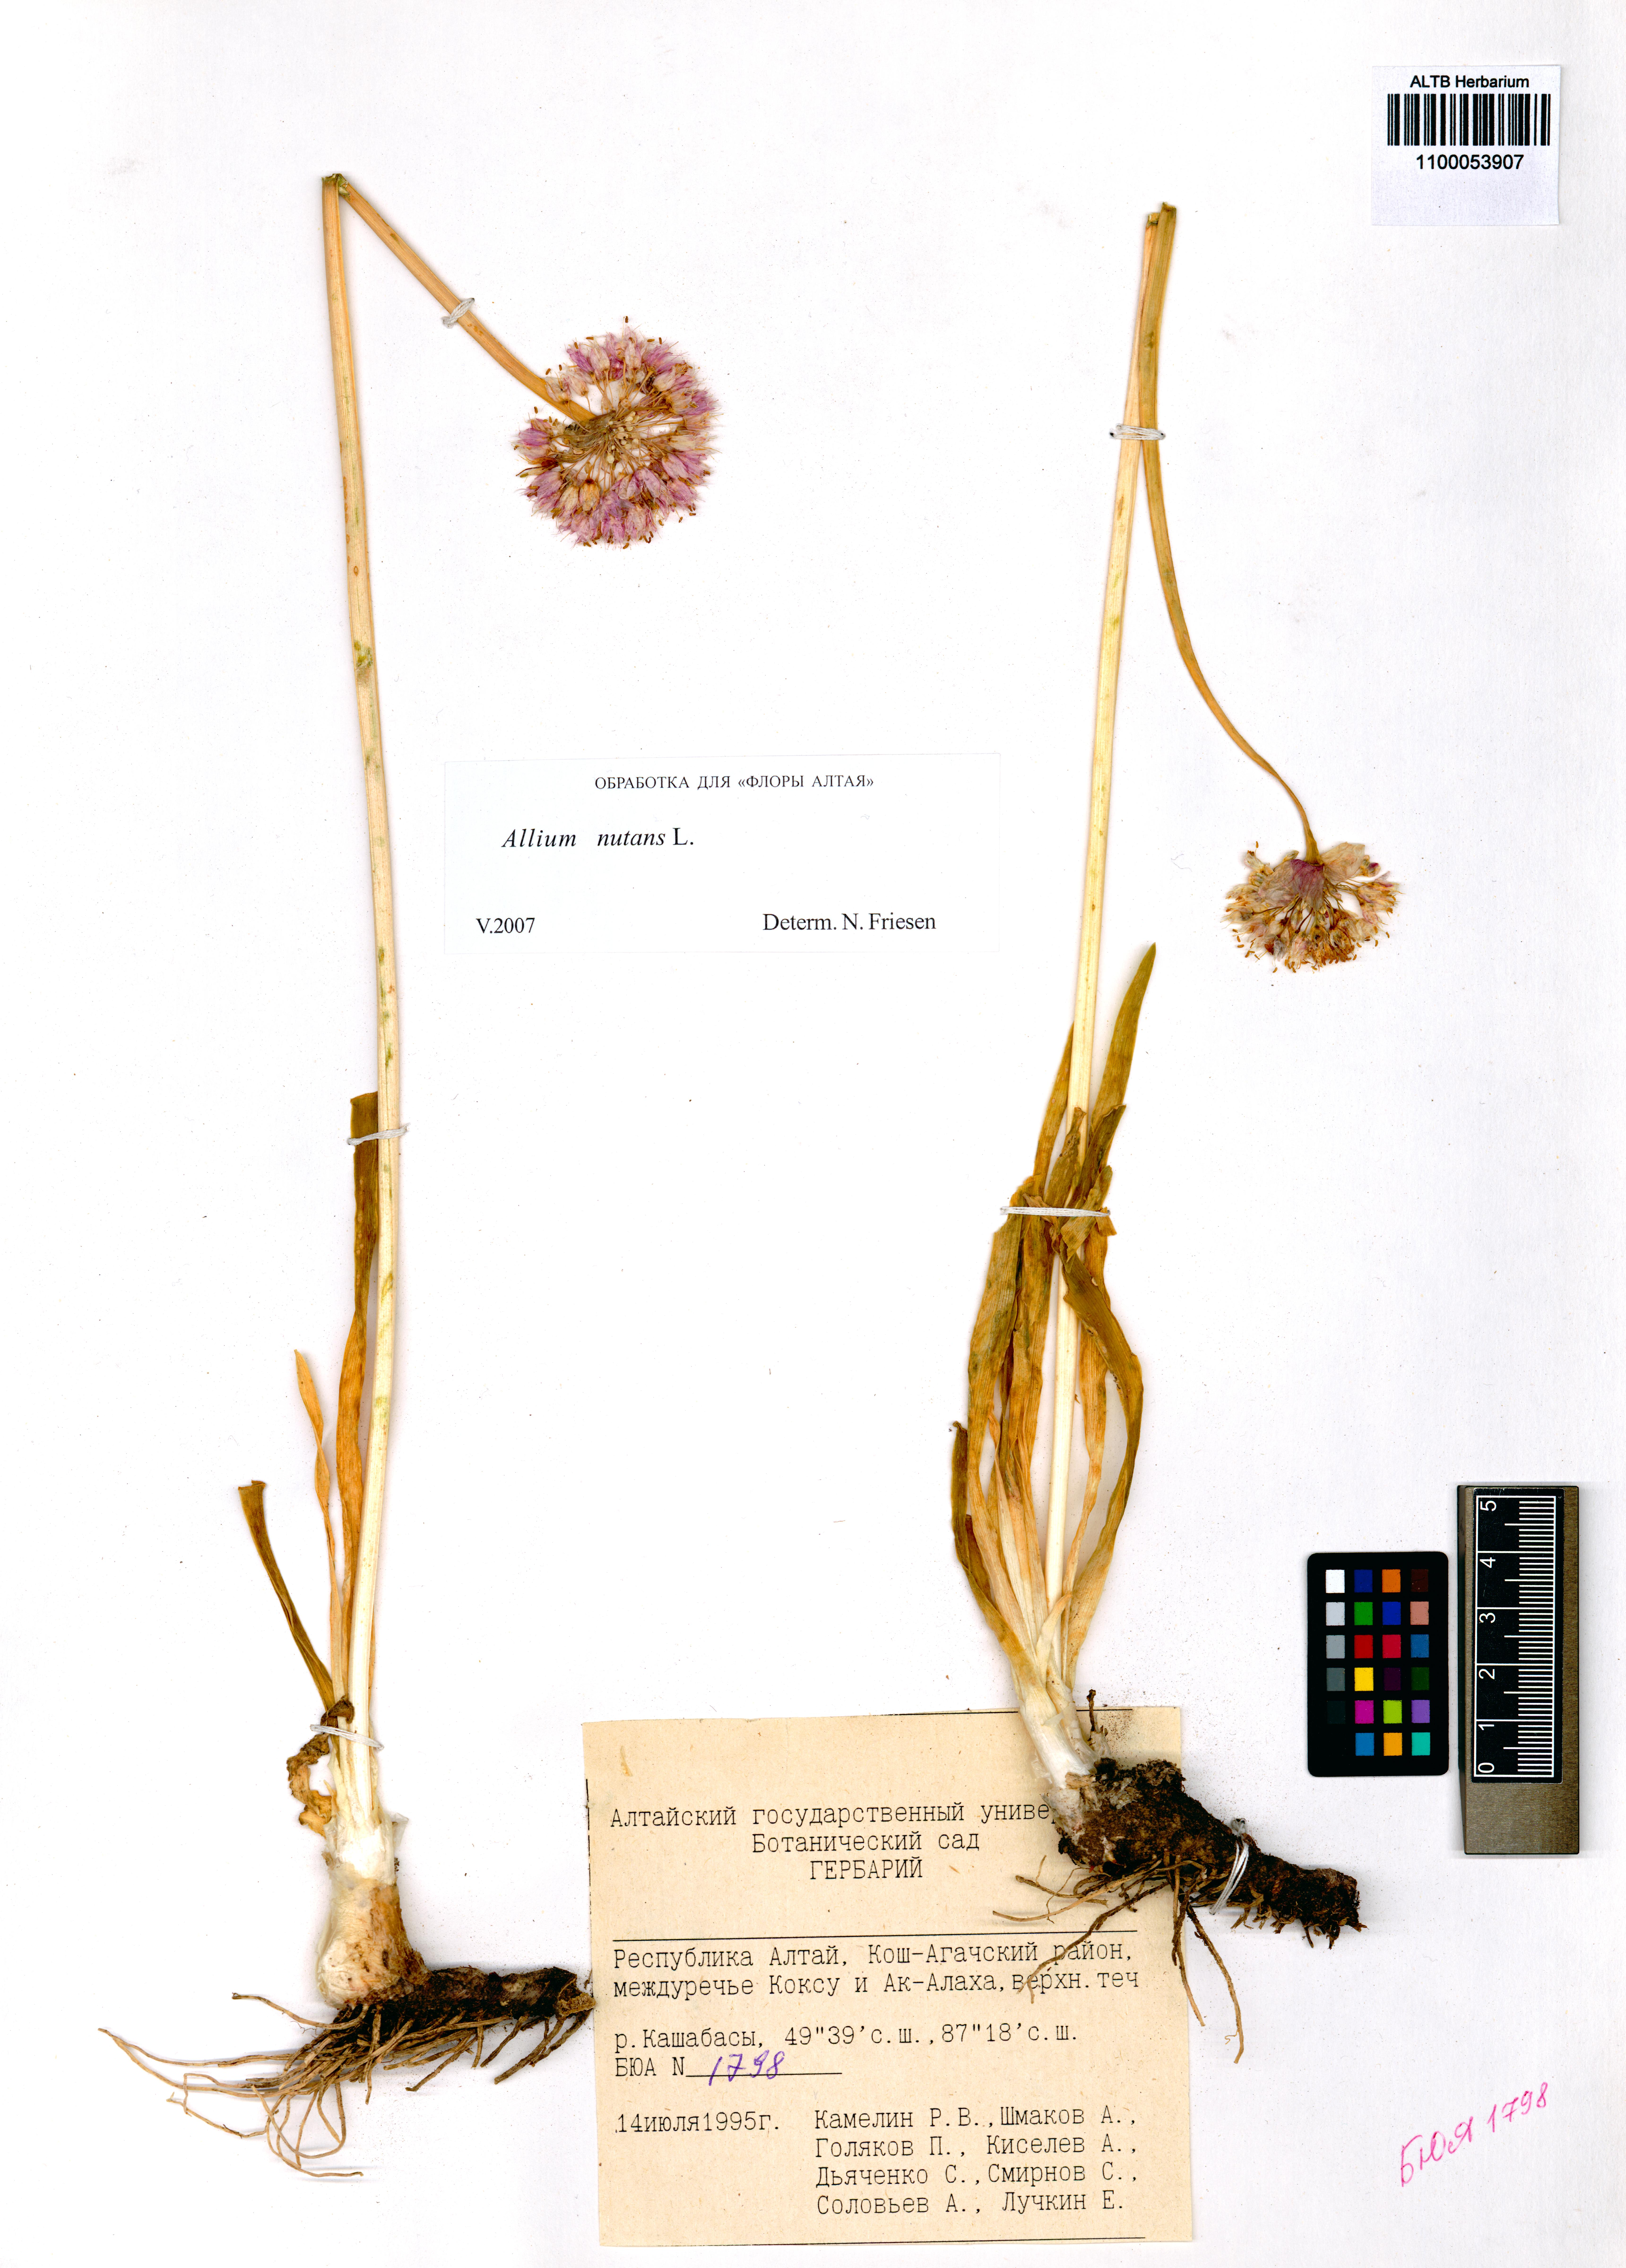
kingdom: Plantae
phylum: Tracheophyta
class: Liliopsida
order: Asparagales
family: Amaryllidaceae
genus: Allium
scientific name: Allium nutans
